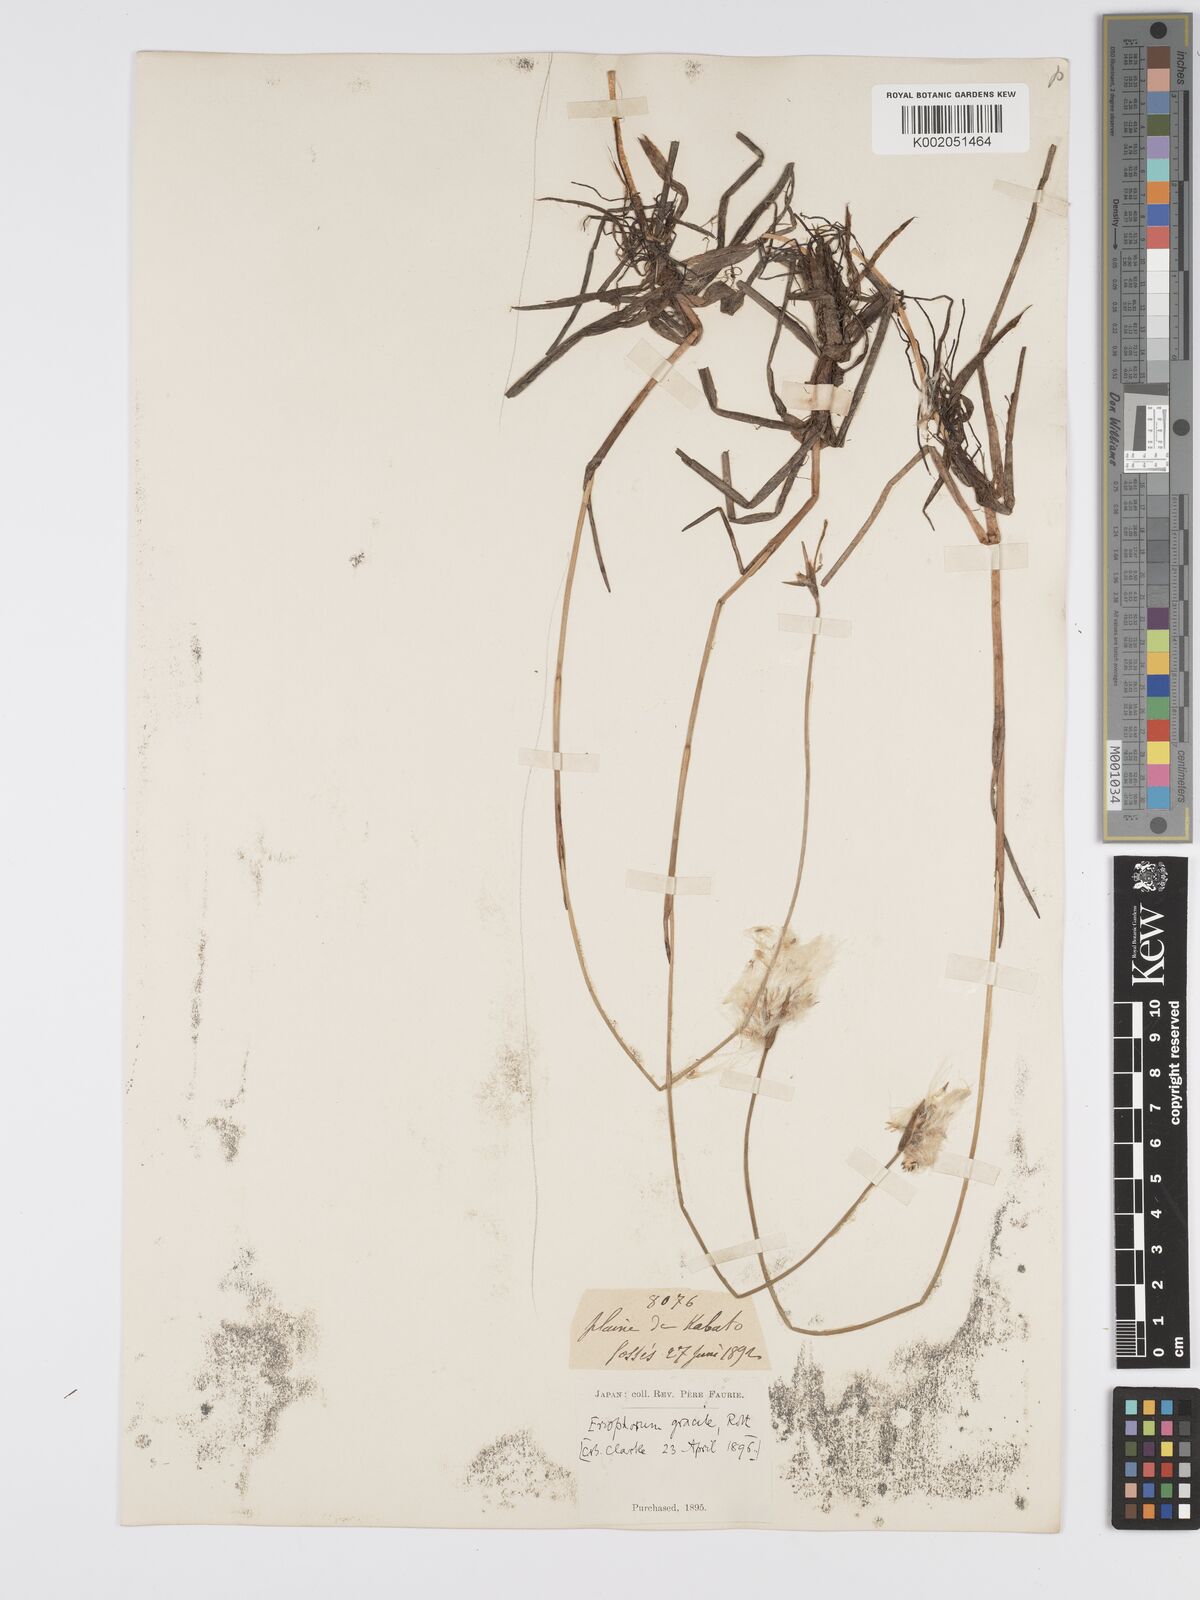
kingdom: Plantae
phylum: Tracheophyta
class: Liliopsida
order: Poales
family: Cyperaceae
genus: Eriophorum
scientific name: Eriophorum gracile
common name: Slender cottongrass
